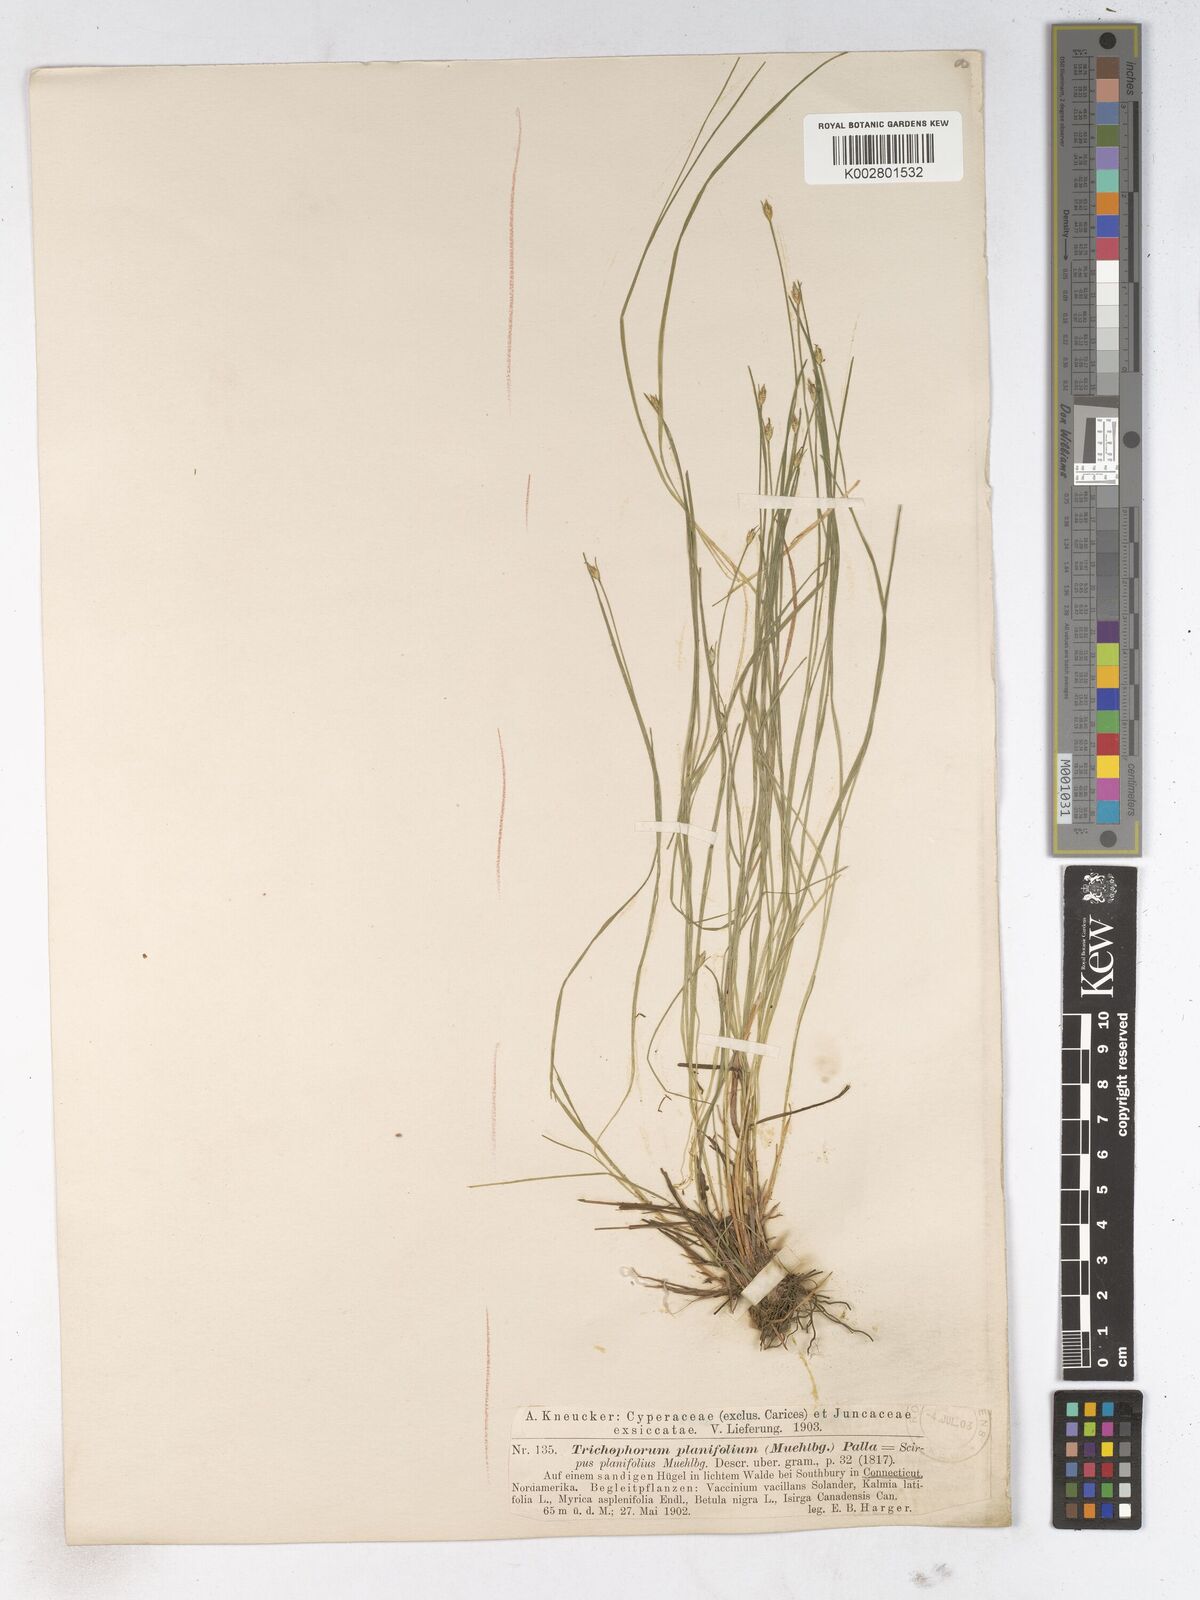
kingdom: Plantae
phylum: Tracheophyta
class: Liliopsida
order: Poales
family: Cyperaceae
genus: Trichophorum
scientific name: Trichophorum planifolium
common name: Bashful bulrush
